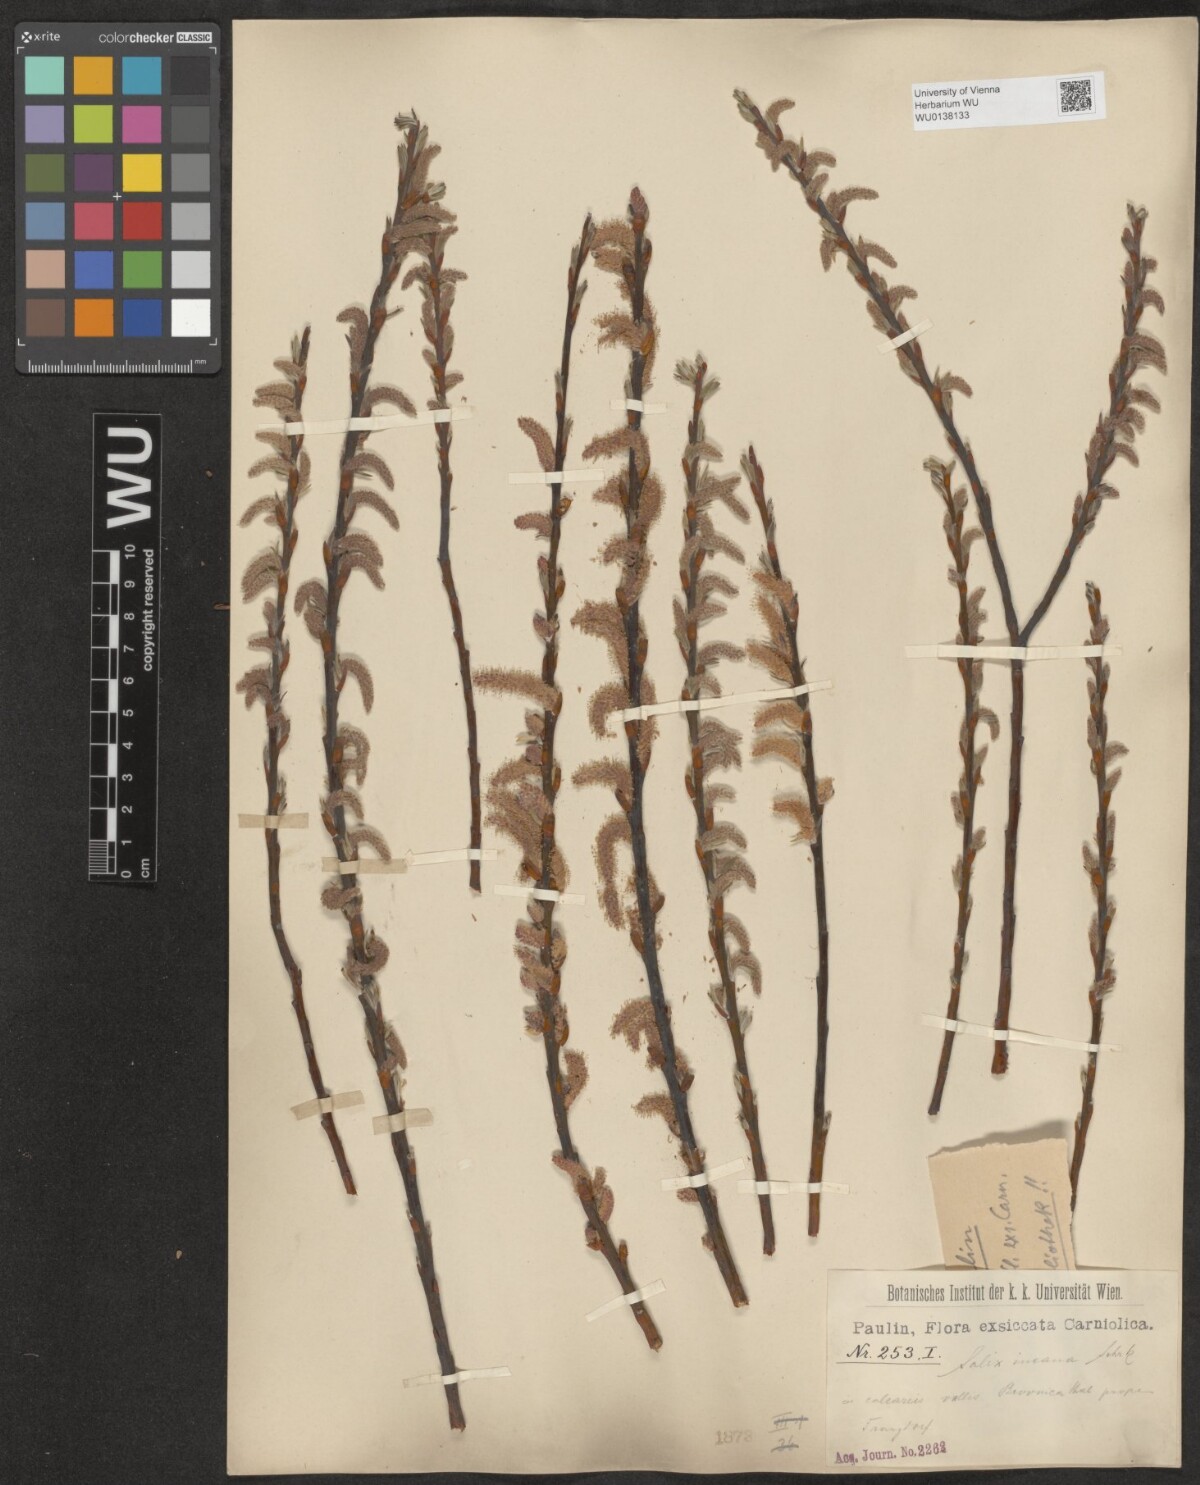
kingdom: Plantae
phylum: Tracheophyta
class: Magnoliopsida
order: Malpighiales
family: Salicaceae
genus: Salix
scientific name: Salix eleagnos
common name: Elaeagnus willow
